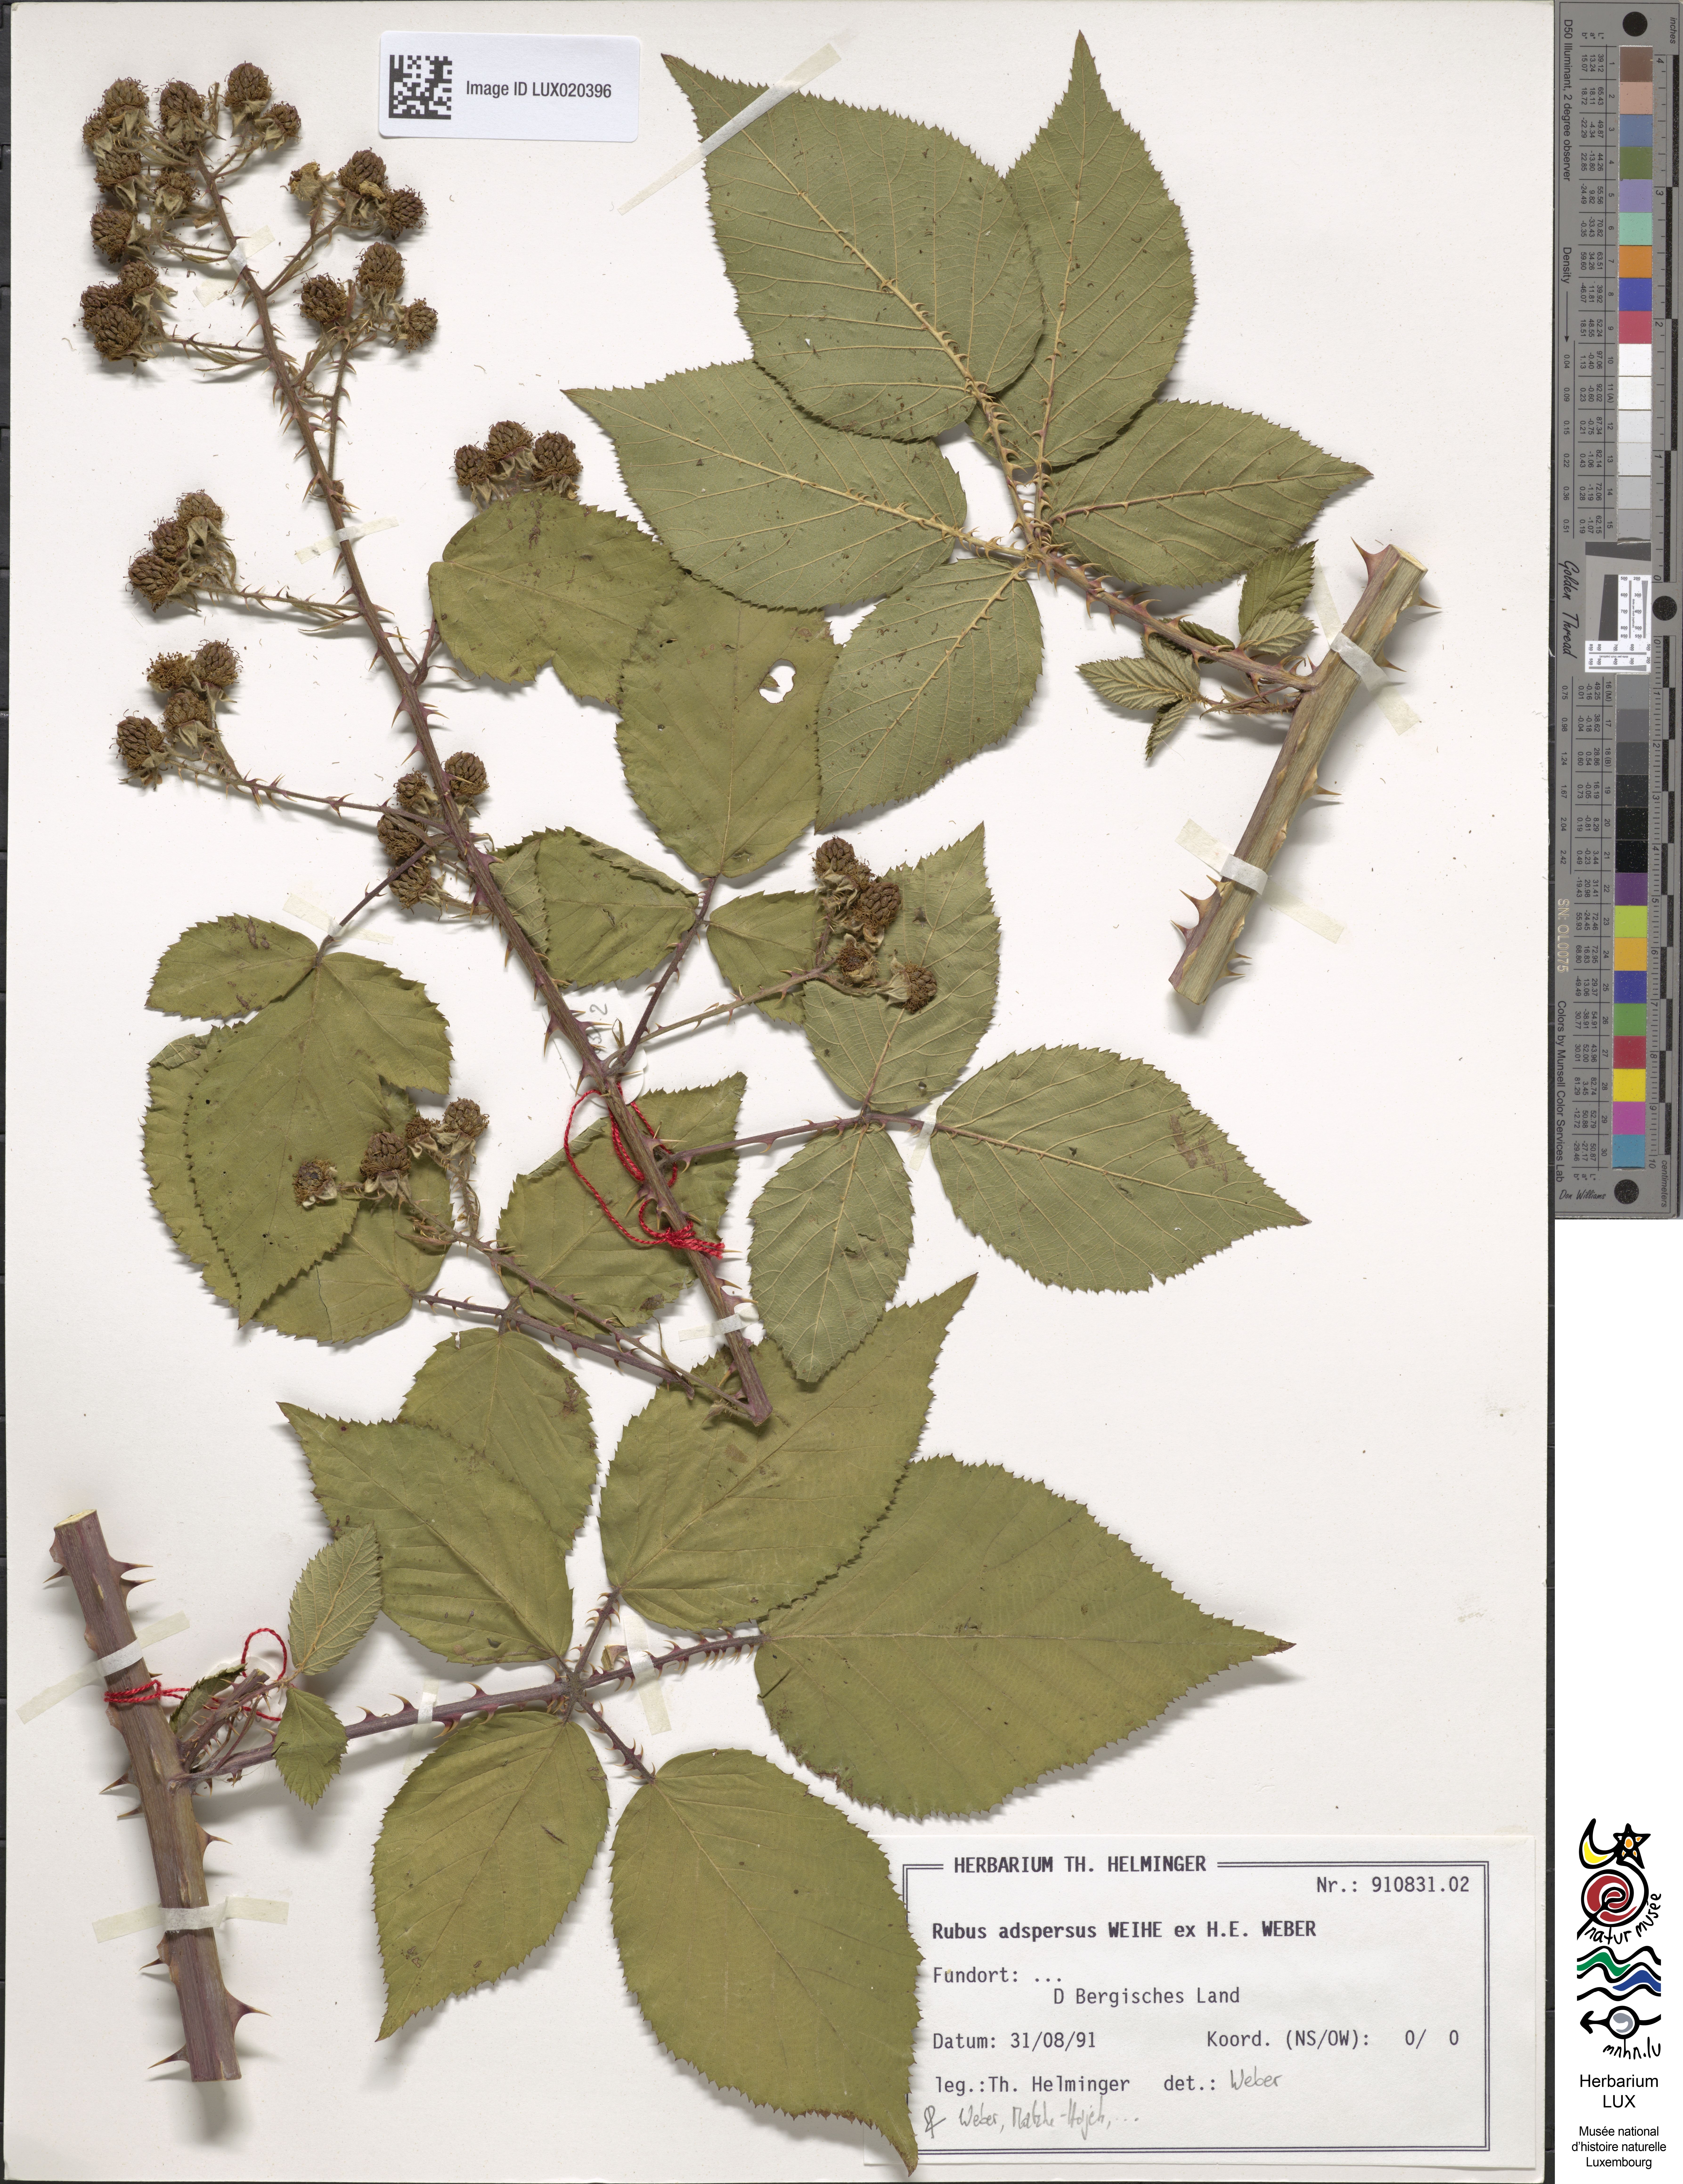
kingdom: Plantae
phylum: Tracheophyta
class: Magnoliopsida
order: Rosales
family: Rosaceae
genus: Rubus
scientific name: Rubus adspersus
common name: Hornbeam-leaved bramble
